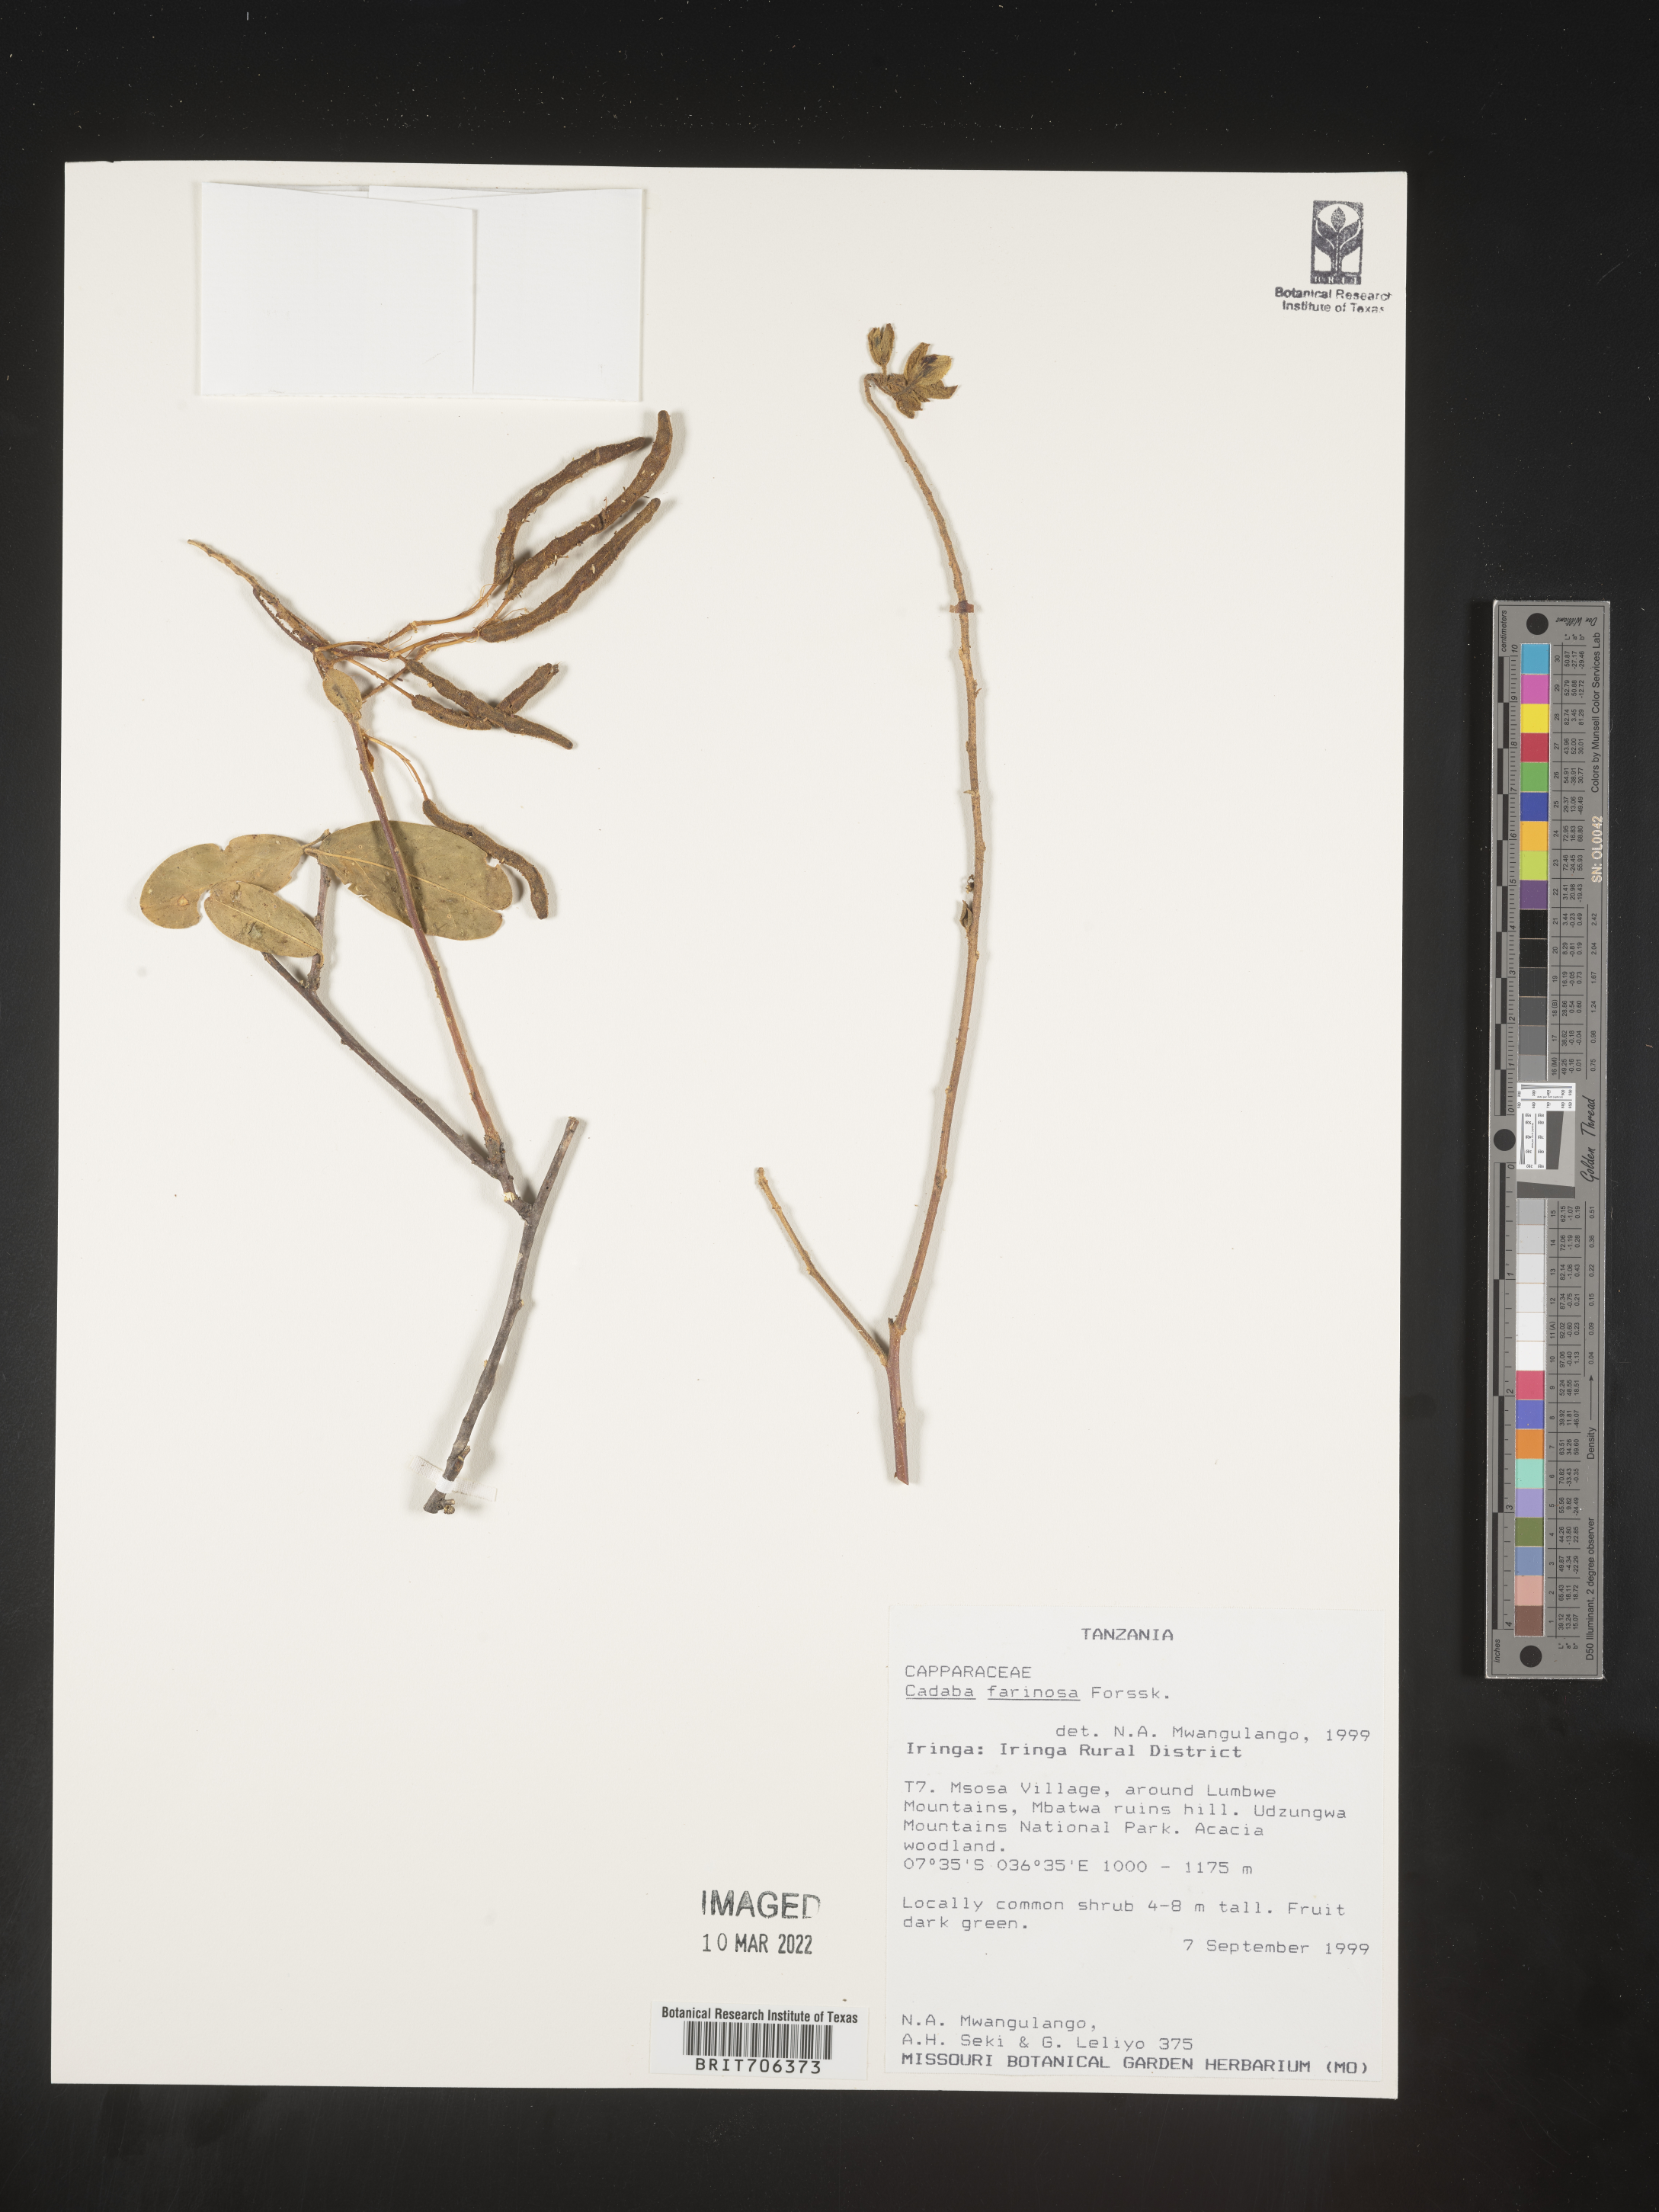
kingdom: Plantae
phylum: Tracheophyta
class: Magnoliopsida
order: Brassicales
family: Capparaceae
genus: Cadaba
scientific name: Cadaba
